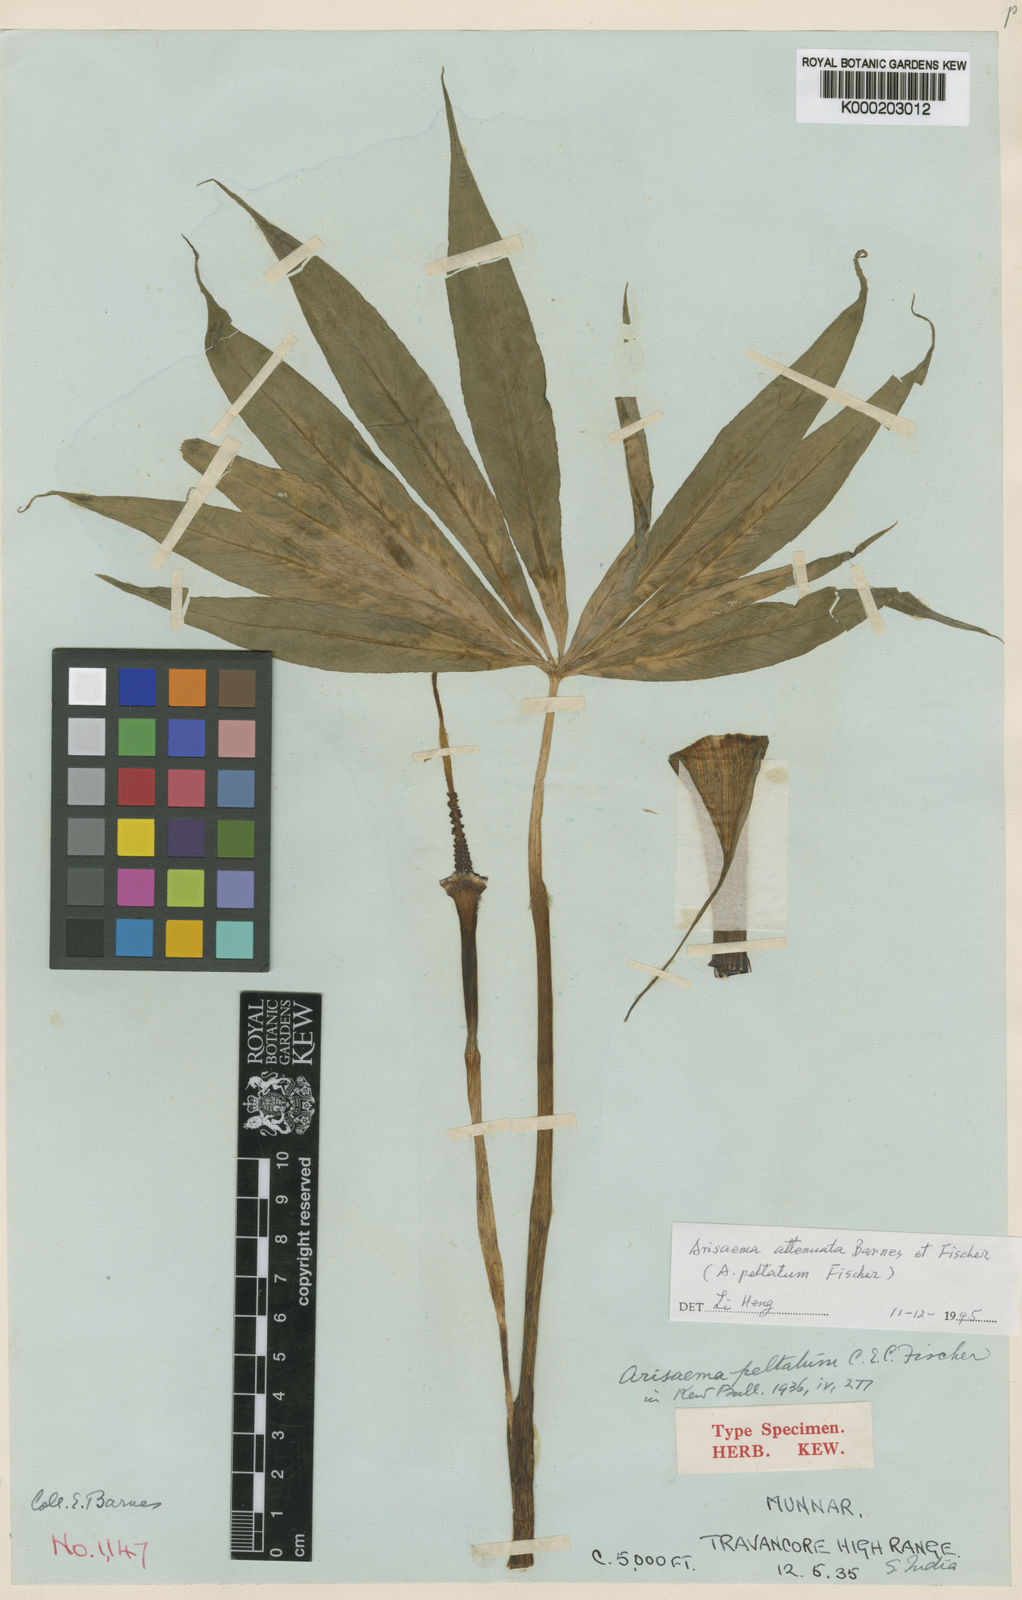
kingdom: Plantae
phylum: Tracheophyta
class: Liliopsida
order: Alismatales
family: Araceae
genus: Arisaema
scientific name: Arisaema attenuatum
